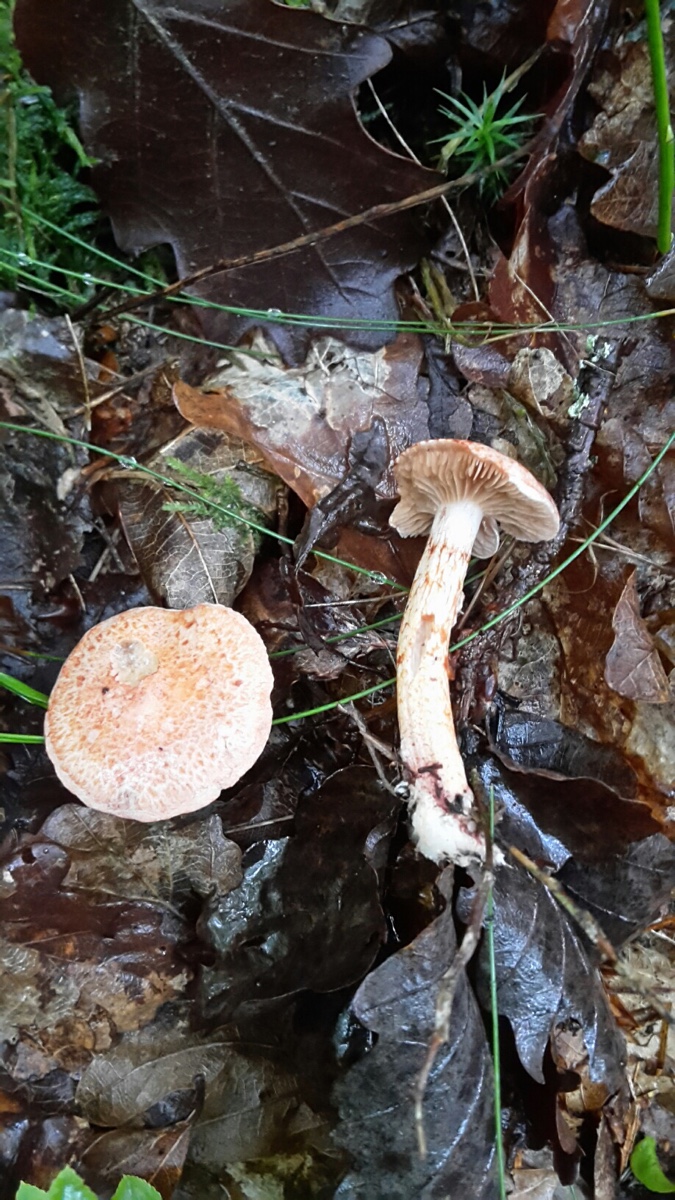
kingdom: Fungi
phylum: Basidiomycota
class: Agaricomycetes
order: Agaricales
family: Cortinariaceae
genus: Cortinarius
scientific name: Cortinarius bolaris
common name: cinnoberskællet slørhat
